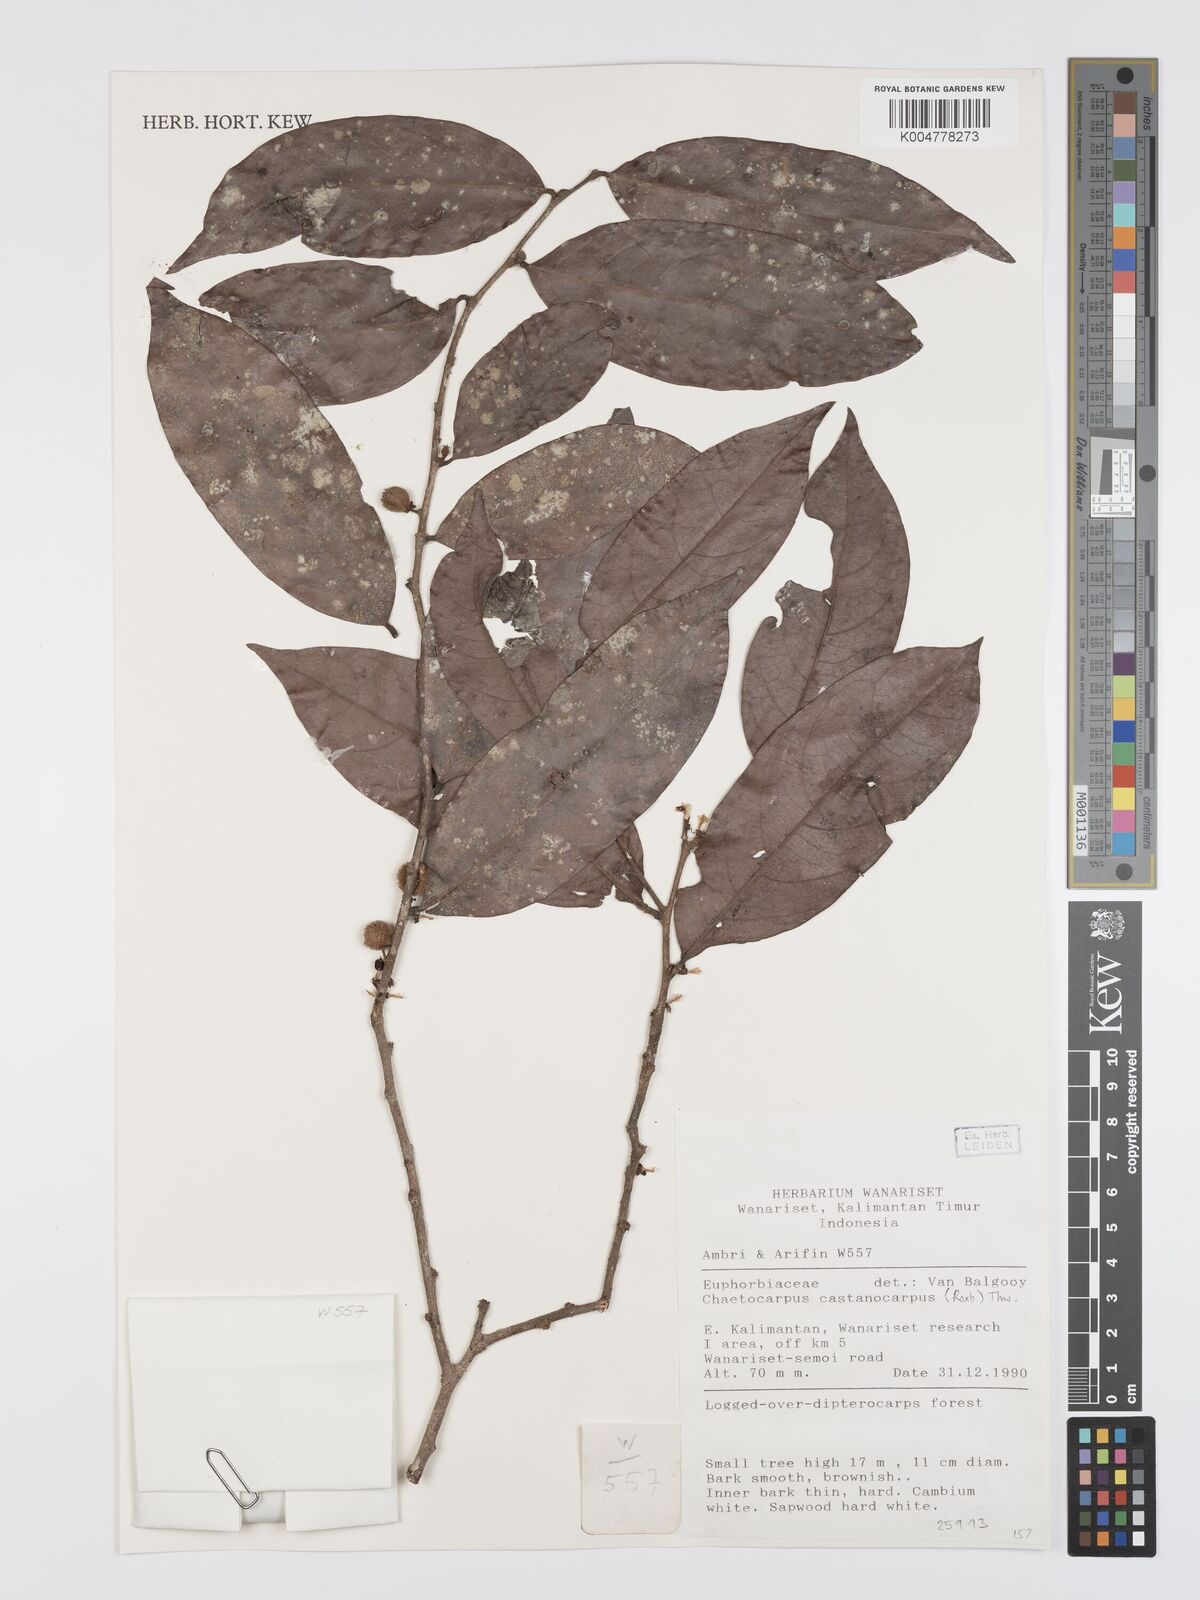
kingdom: Plantae
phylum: Tracheophyta
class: Magnoliopsida
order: Malpighiales
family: Peraceae
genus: Chaetocarpus
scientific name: Chaetocarpus castanocarpus
